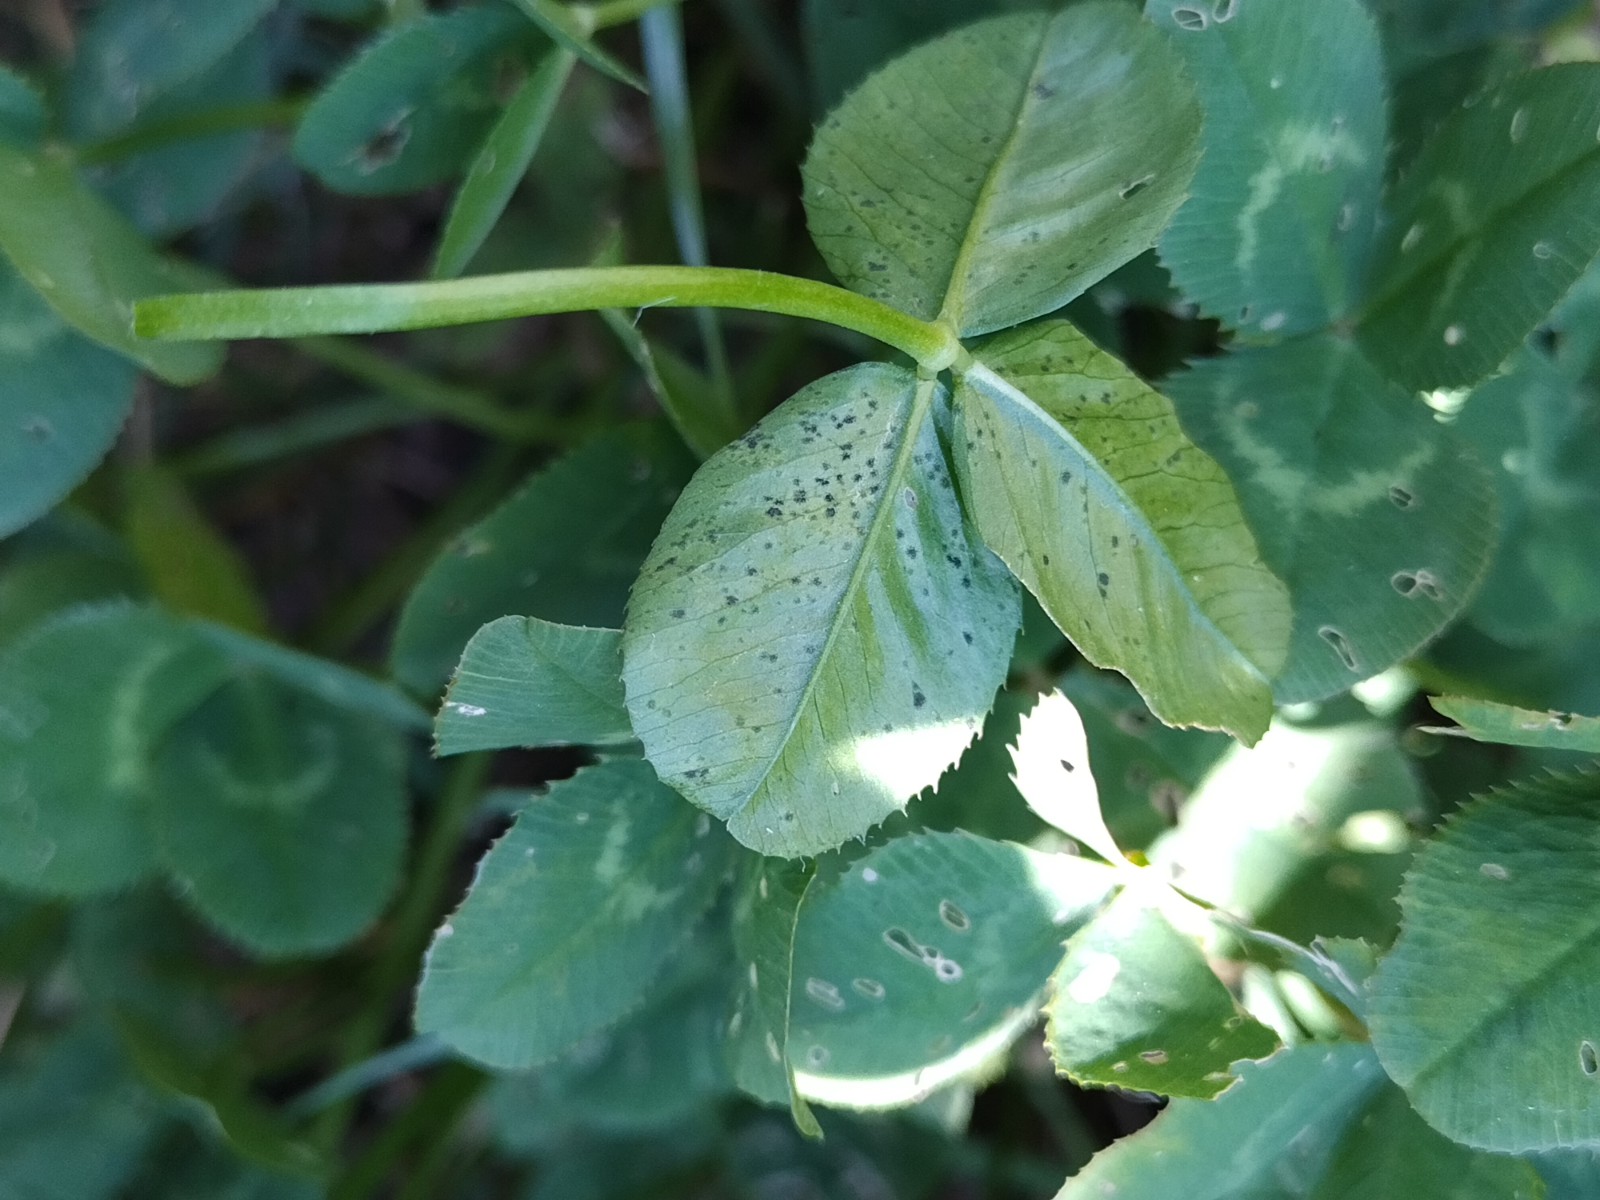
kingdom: Fungi
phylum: Ascomycota
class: Dothideomycetes
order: Mycosphaerellales
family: Mycosphaerellaceae
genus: Polythrincium
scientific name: Polythrincium trifolii
